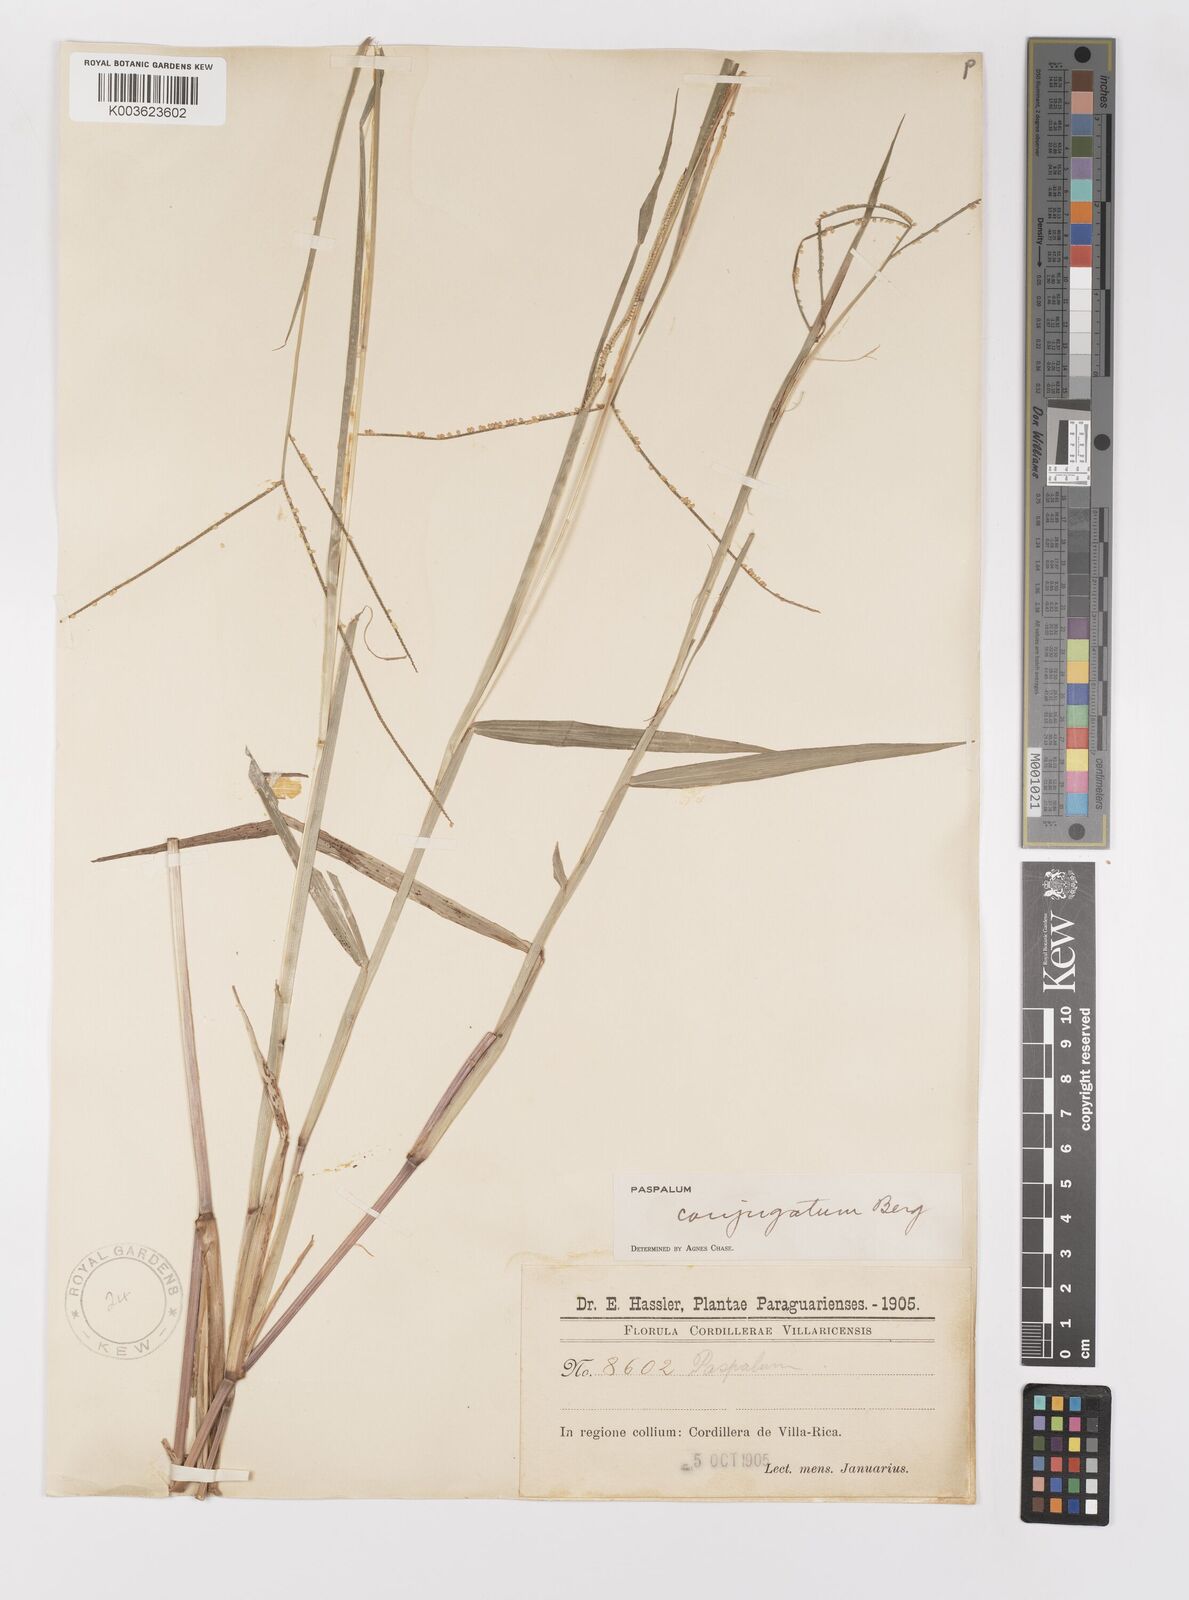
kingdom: Plantae
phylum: Tracheophyta
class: Liliopsida
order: Poales
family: Poaceae
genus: Paspalum
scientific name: Paspalum conjugatum
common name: Hilograss
